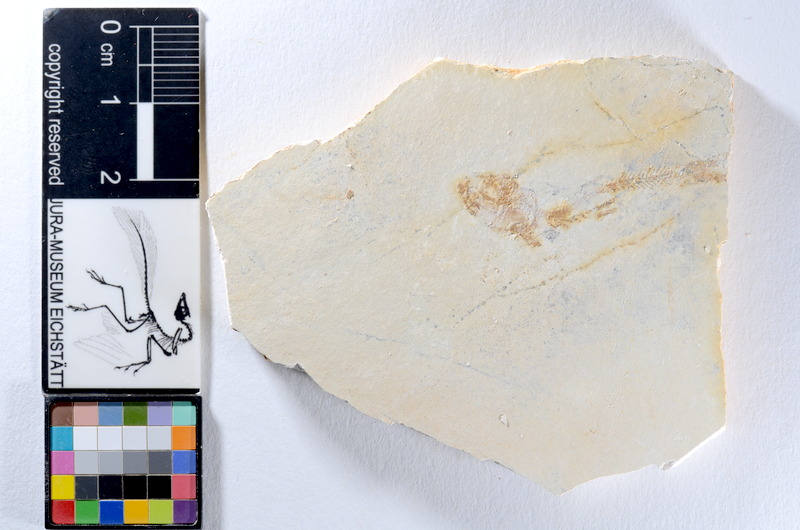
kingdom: Animalia
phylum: Chordata
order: Salmoniformes
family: Orthogonikleithridae
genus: Orthogonikleithrus
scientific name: Orthogonikleithrus hoelli
